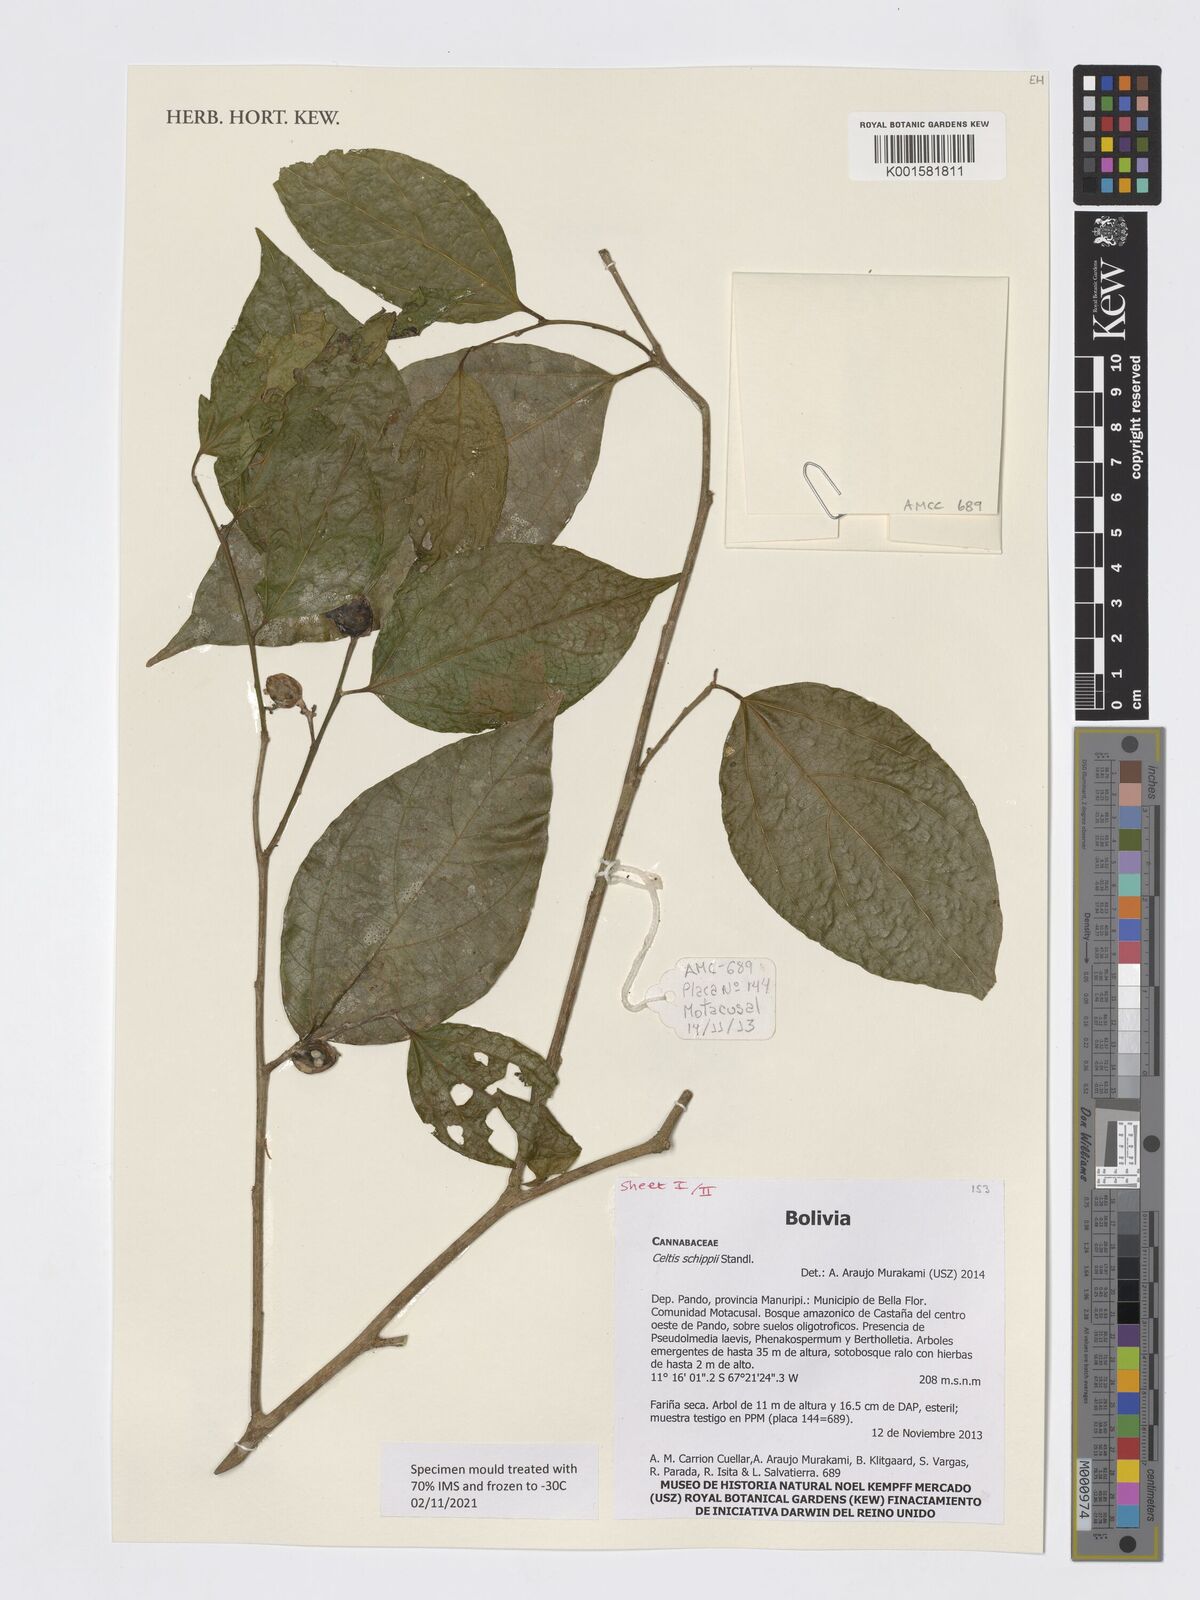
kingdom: Plantae
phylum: Tracheophyta
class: Magnoliopsida
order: Rosales
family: Cannabaceae
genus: Celtis
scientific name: Celtis schippii
